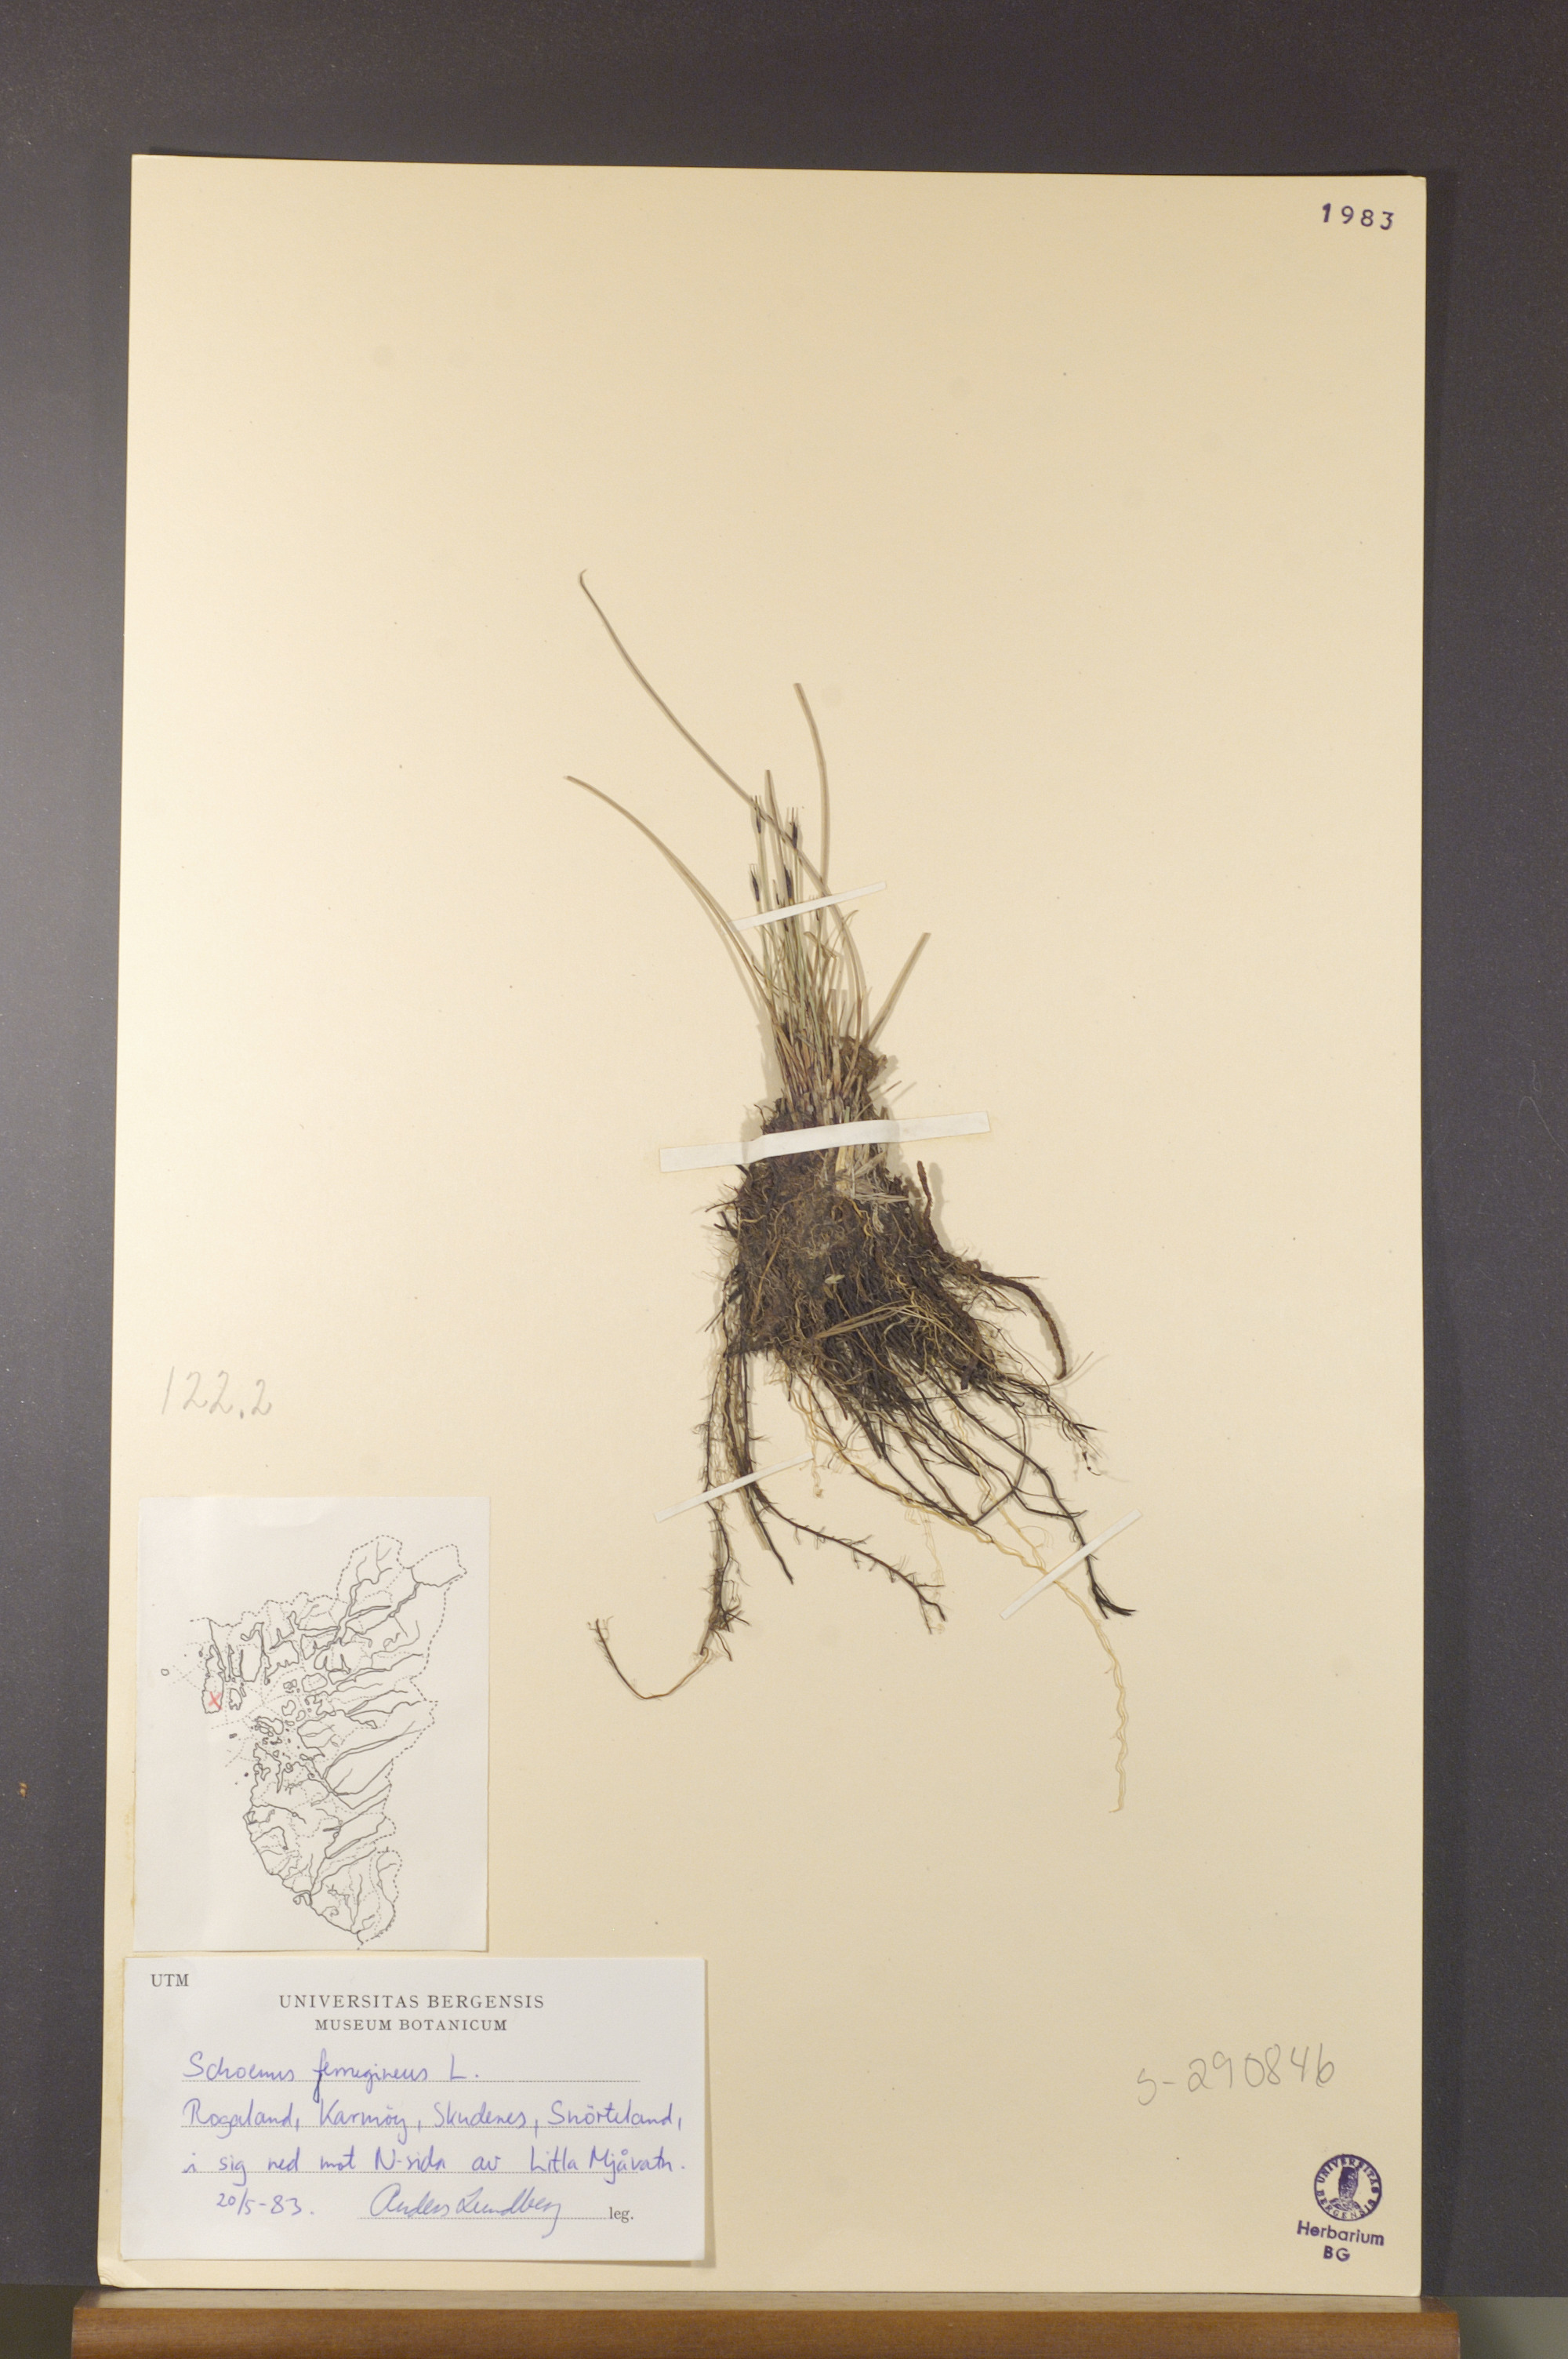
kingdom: Plantae
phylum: Tracheophyta
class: Liliopsida
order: Poales
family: Cyperaceae
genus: Schoenus
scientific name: Schoenus ferrugineus
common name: Brown bog-rush
